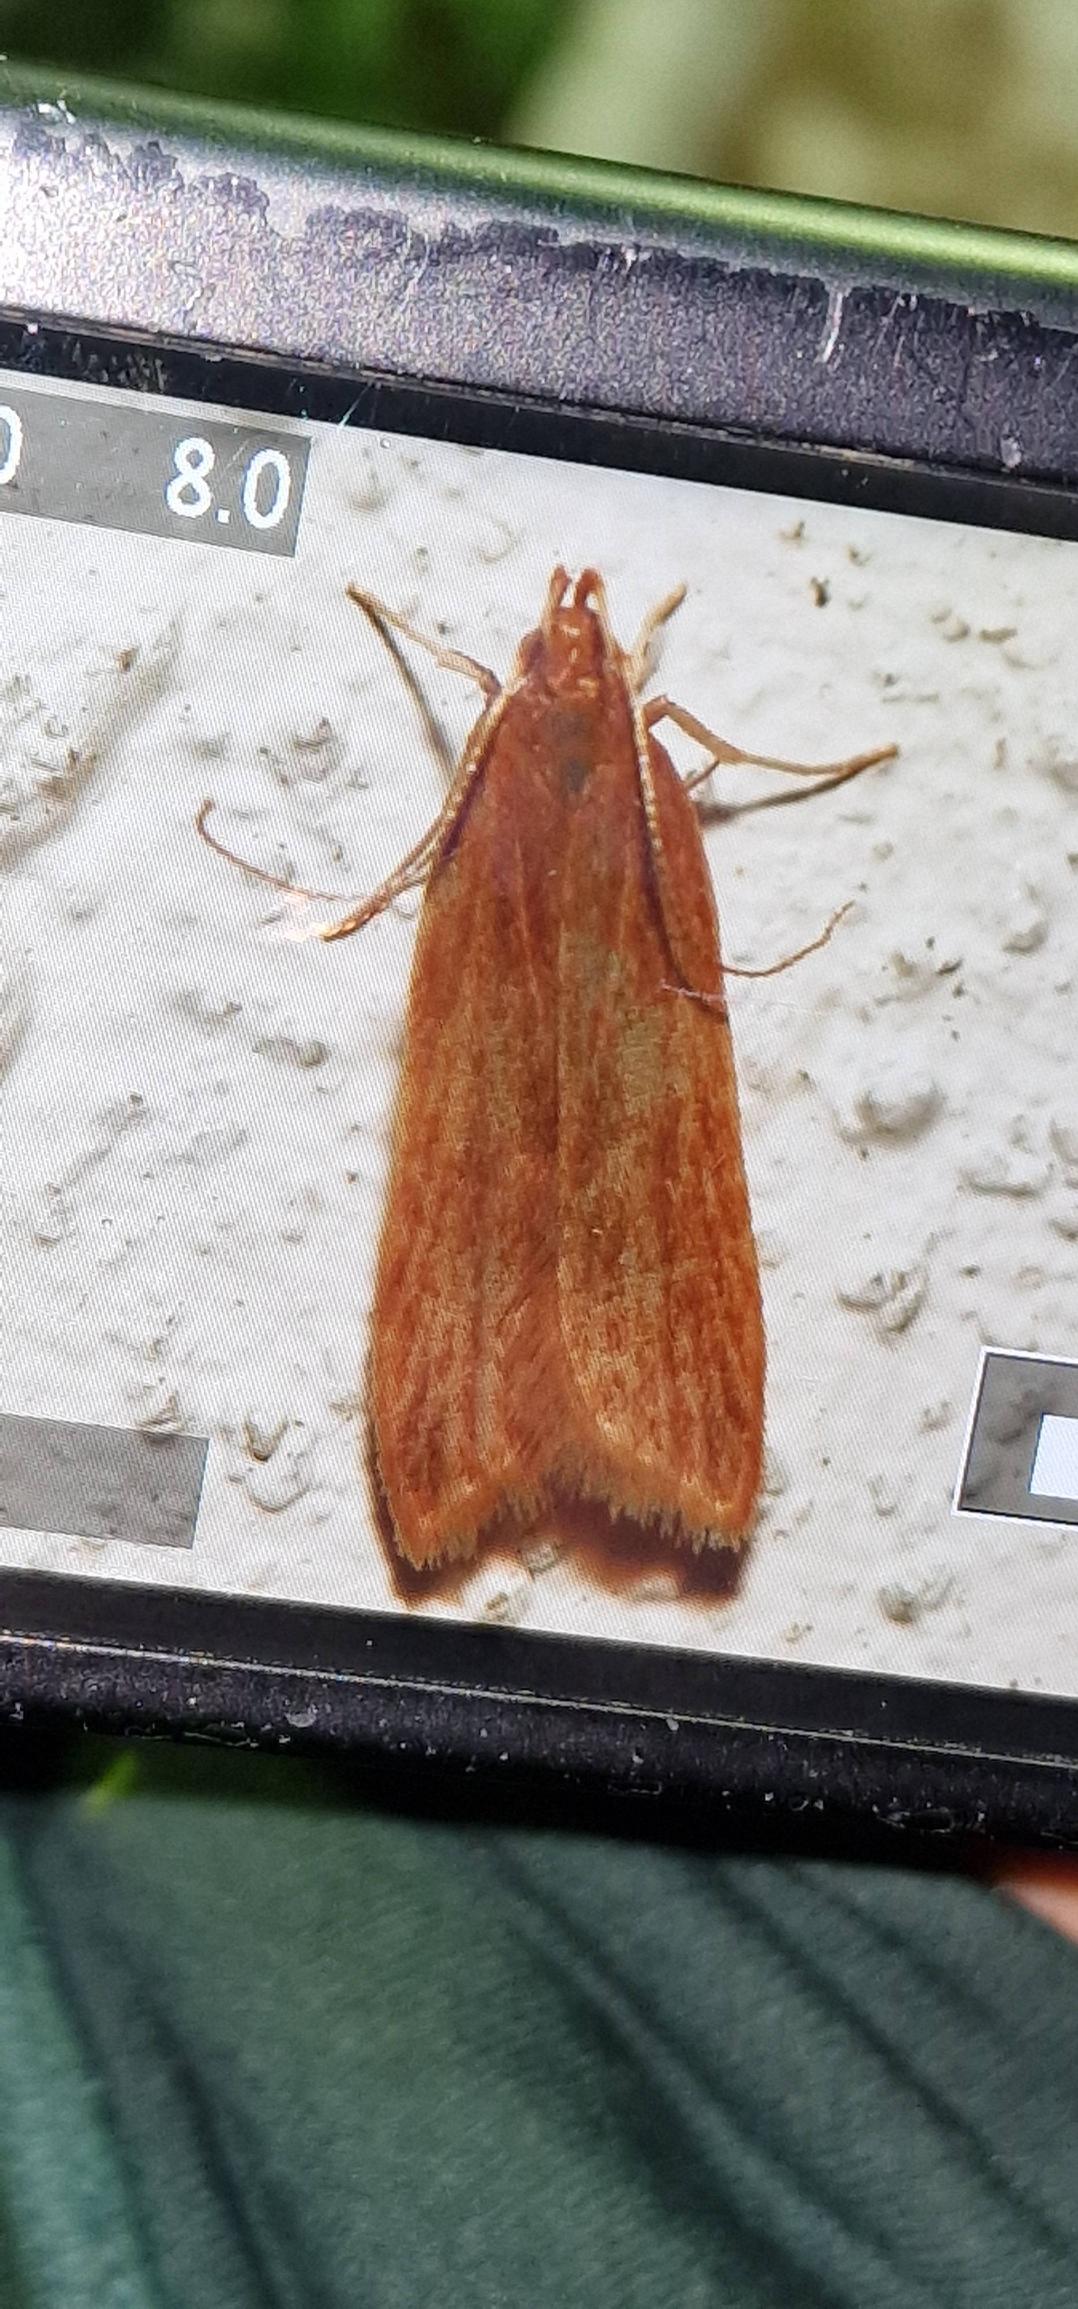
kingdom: Animalia
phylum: Arthropoda
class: Insecta
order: Lepidoptera
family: Gelechiidae
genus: Helcystogramma
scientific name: Helcystogramma rufescens
